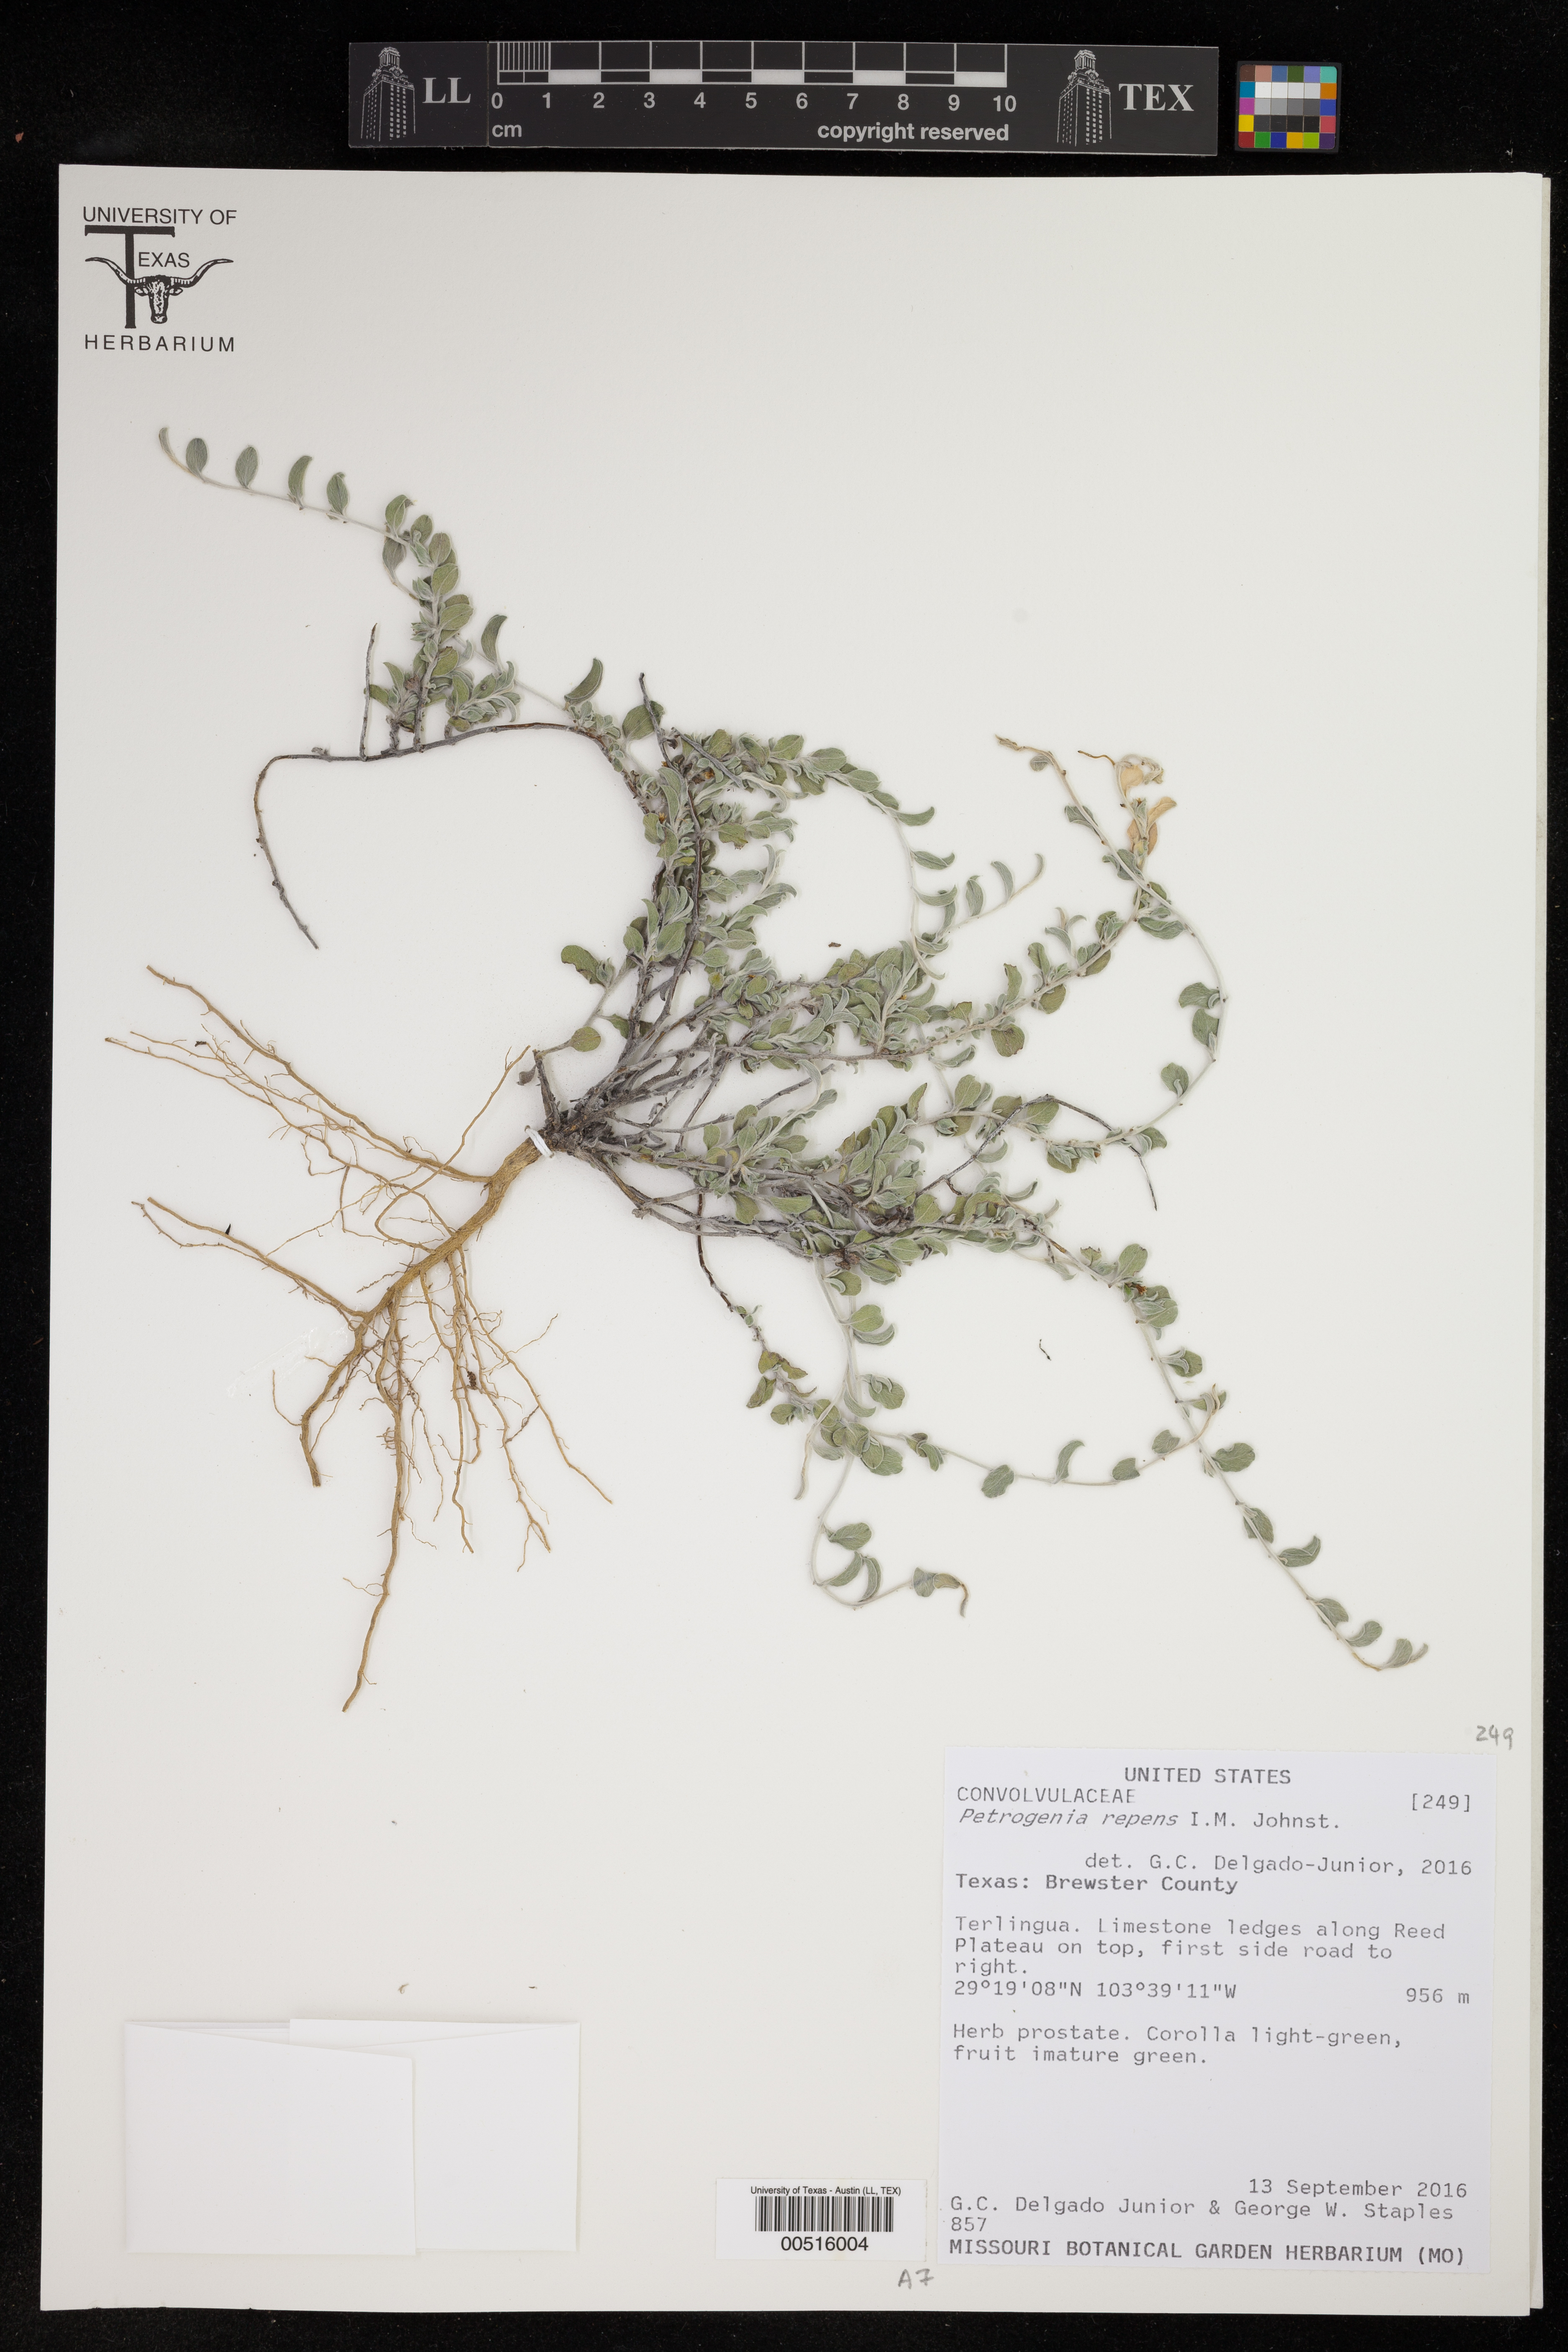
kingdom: Plantae
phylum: Tracheophyta
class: Magnoliopsida
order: Solanales
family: Convolvulaceae
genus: Bonamia
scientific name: Bonamia repens
